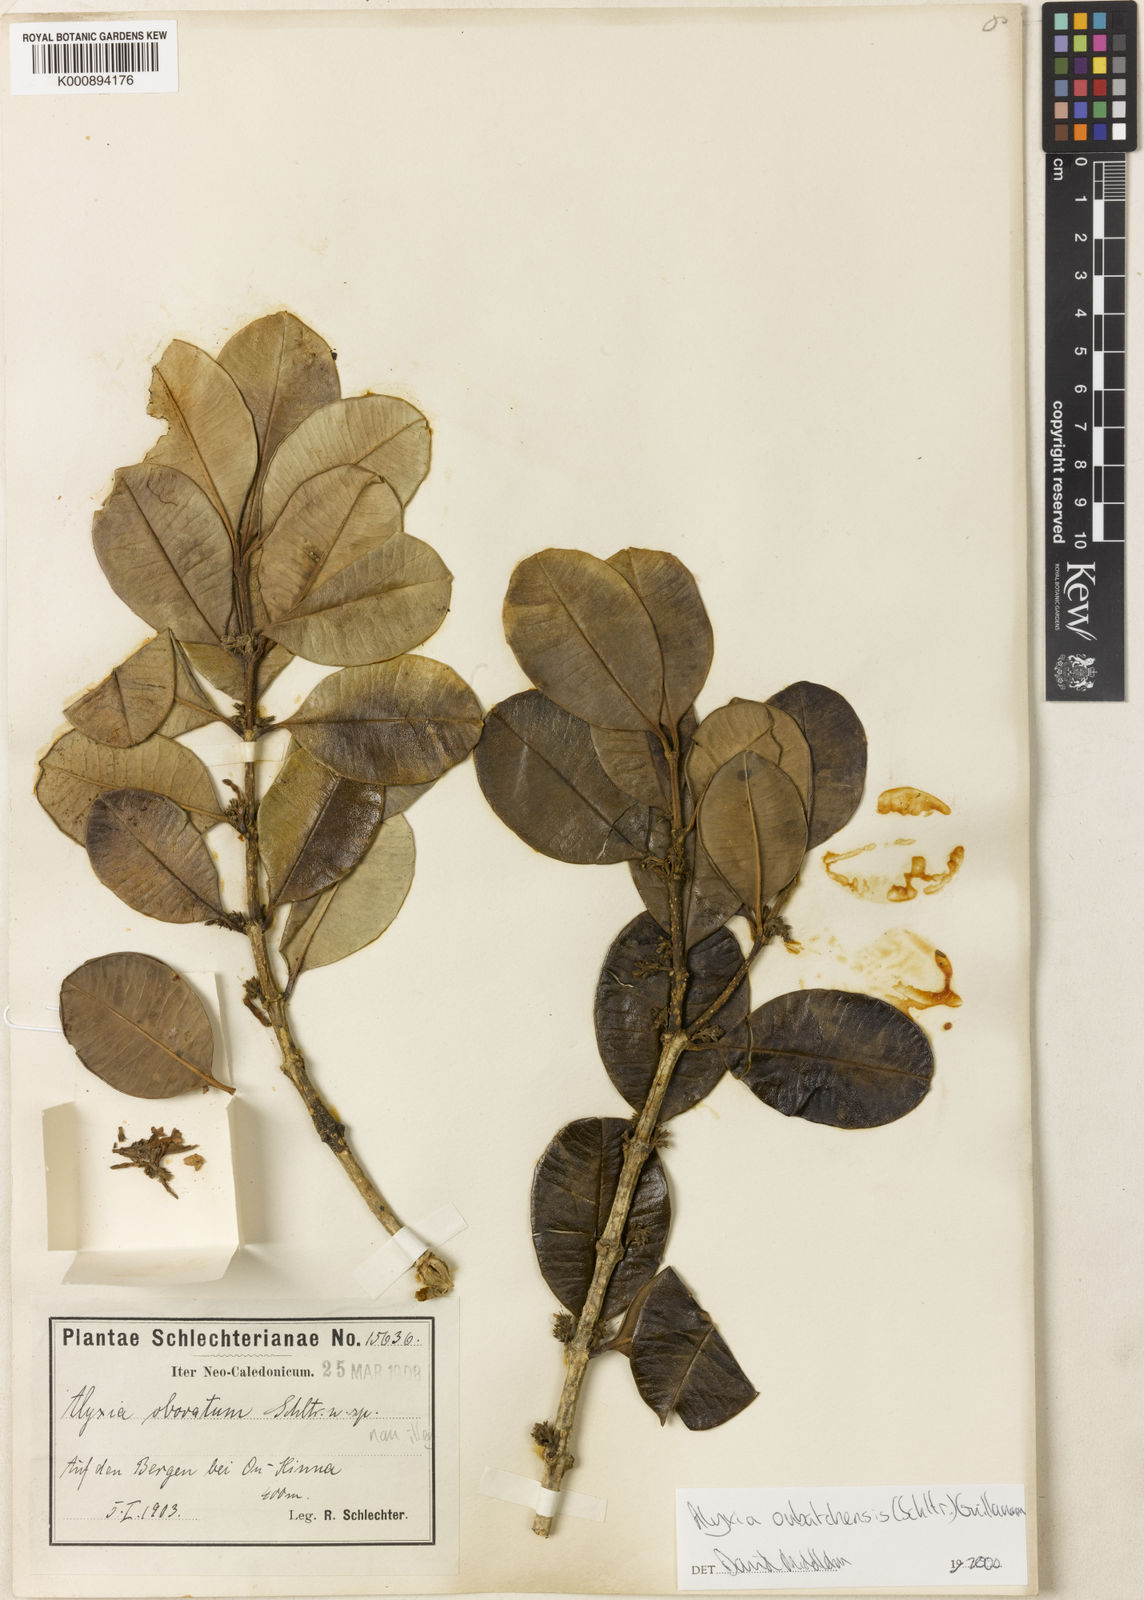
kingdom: Plantae
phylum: Tracheophyta
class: Magnoliopsida
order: Gentianales
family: Apocynaceae
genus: Alyxia
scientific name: Alyxia oubatchensis
